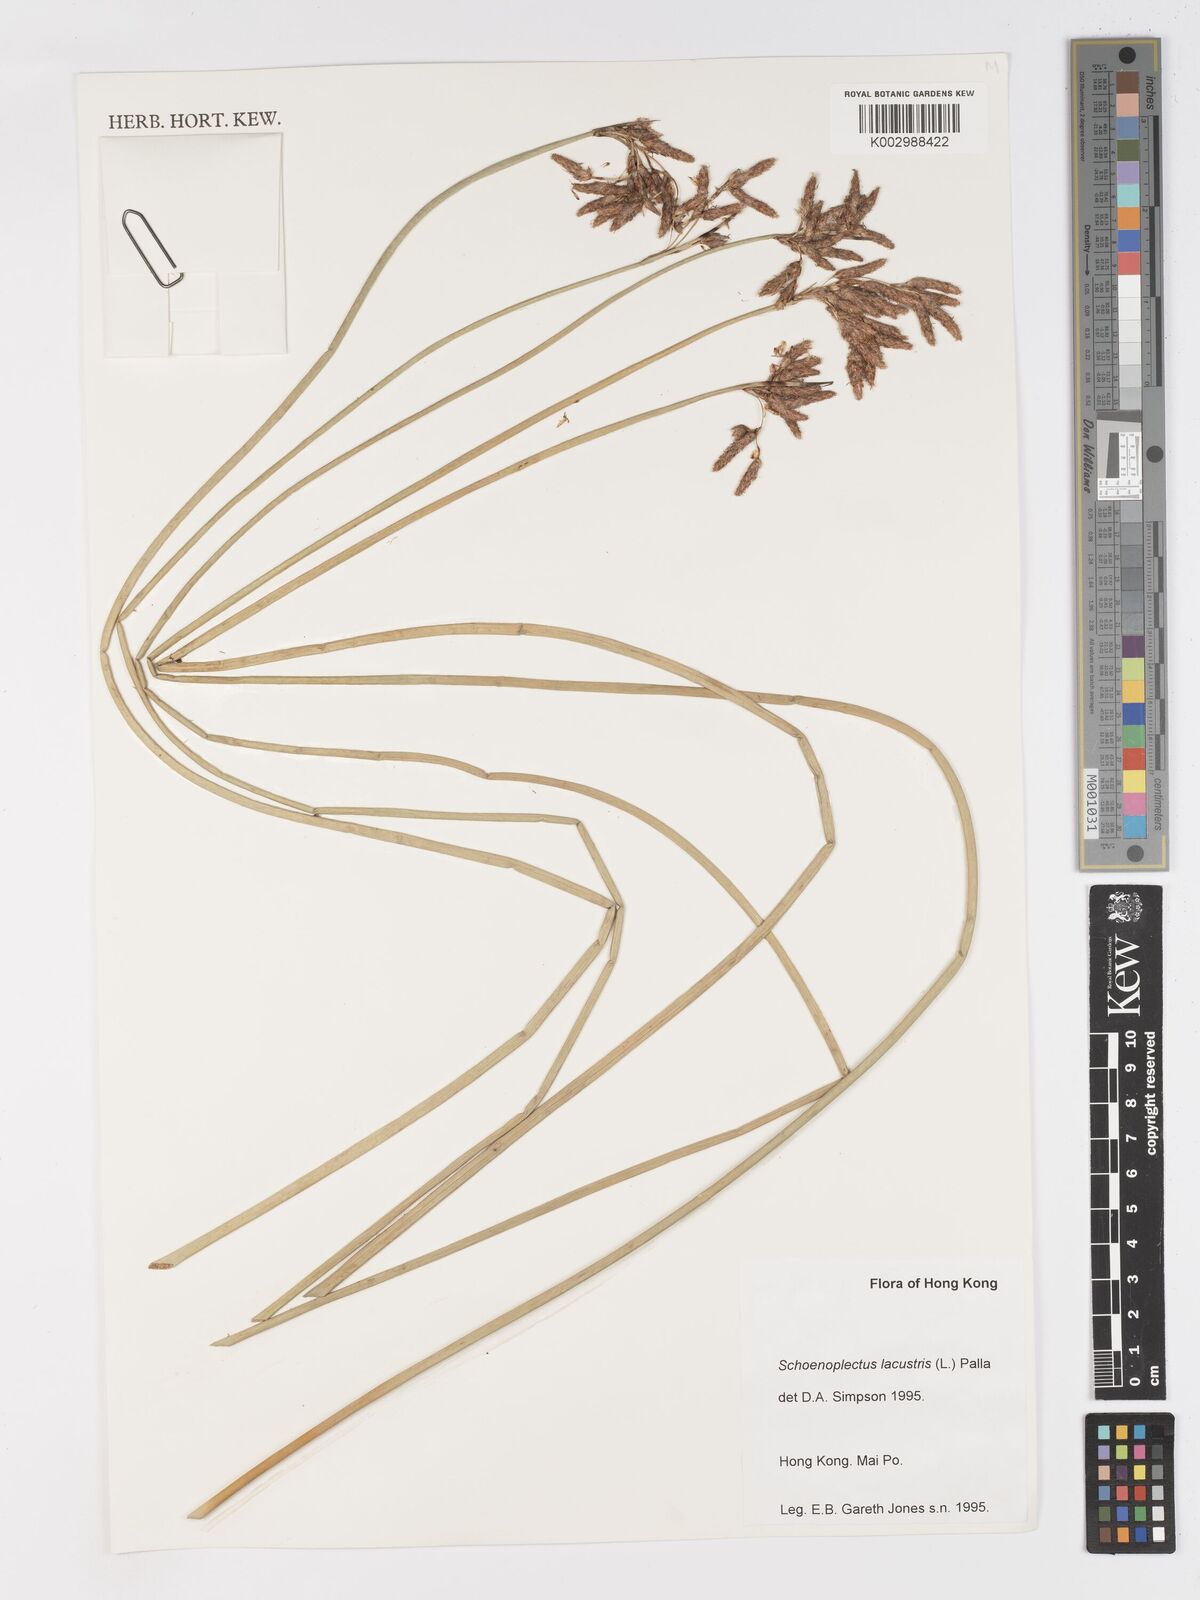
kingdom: Plantae
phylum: Tracheophyta
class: Liliopsida
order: Poales
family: Cyperaceae
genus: Schoenoplectus
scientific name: Schoenoplectus lacustris
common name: Common club-rush
